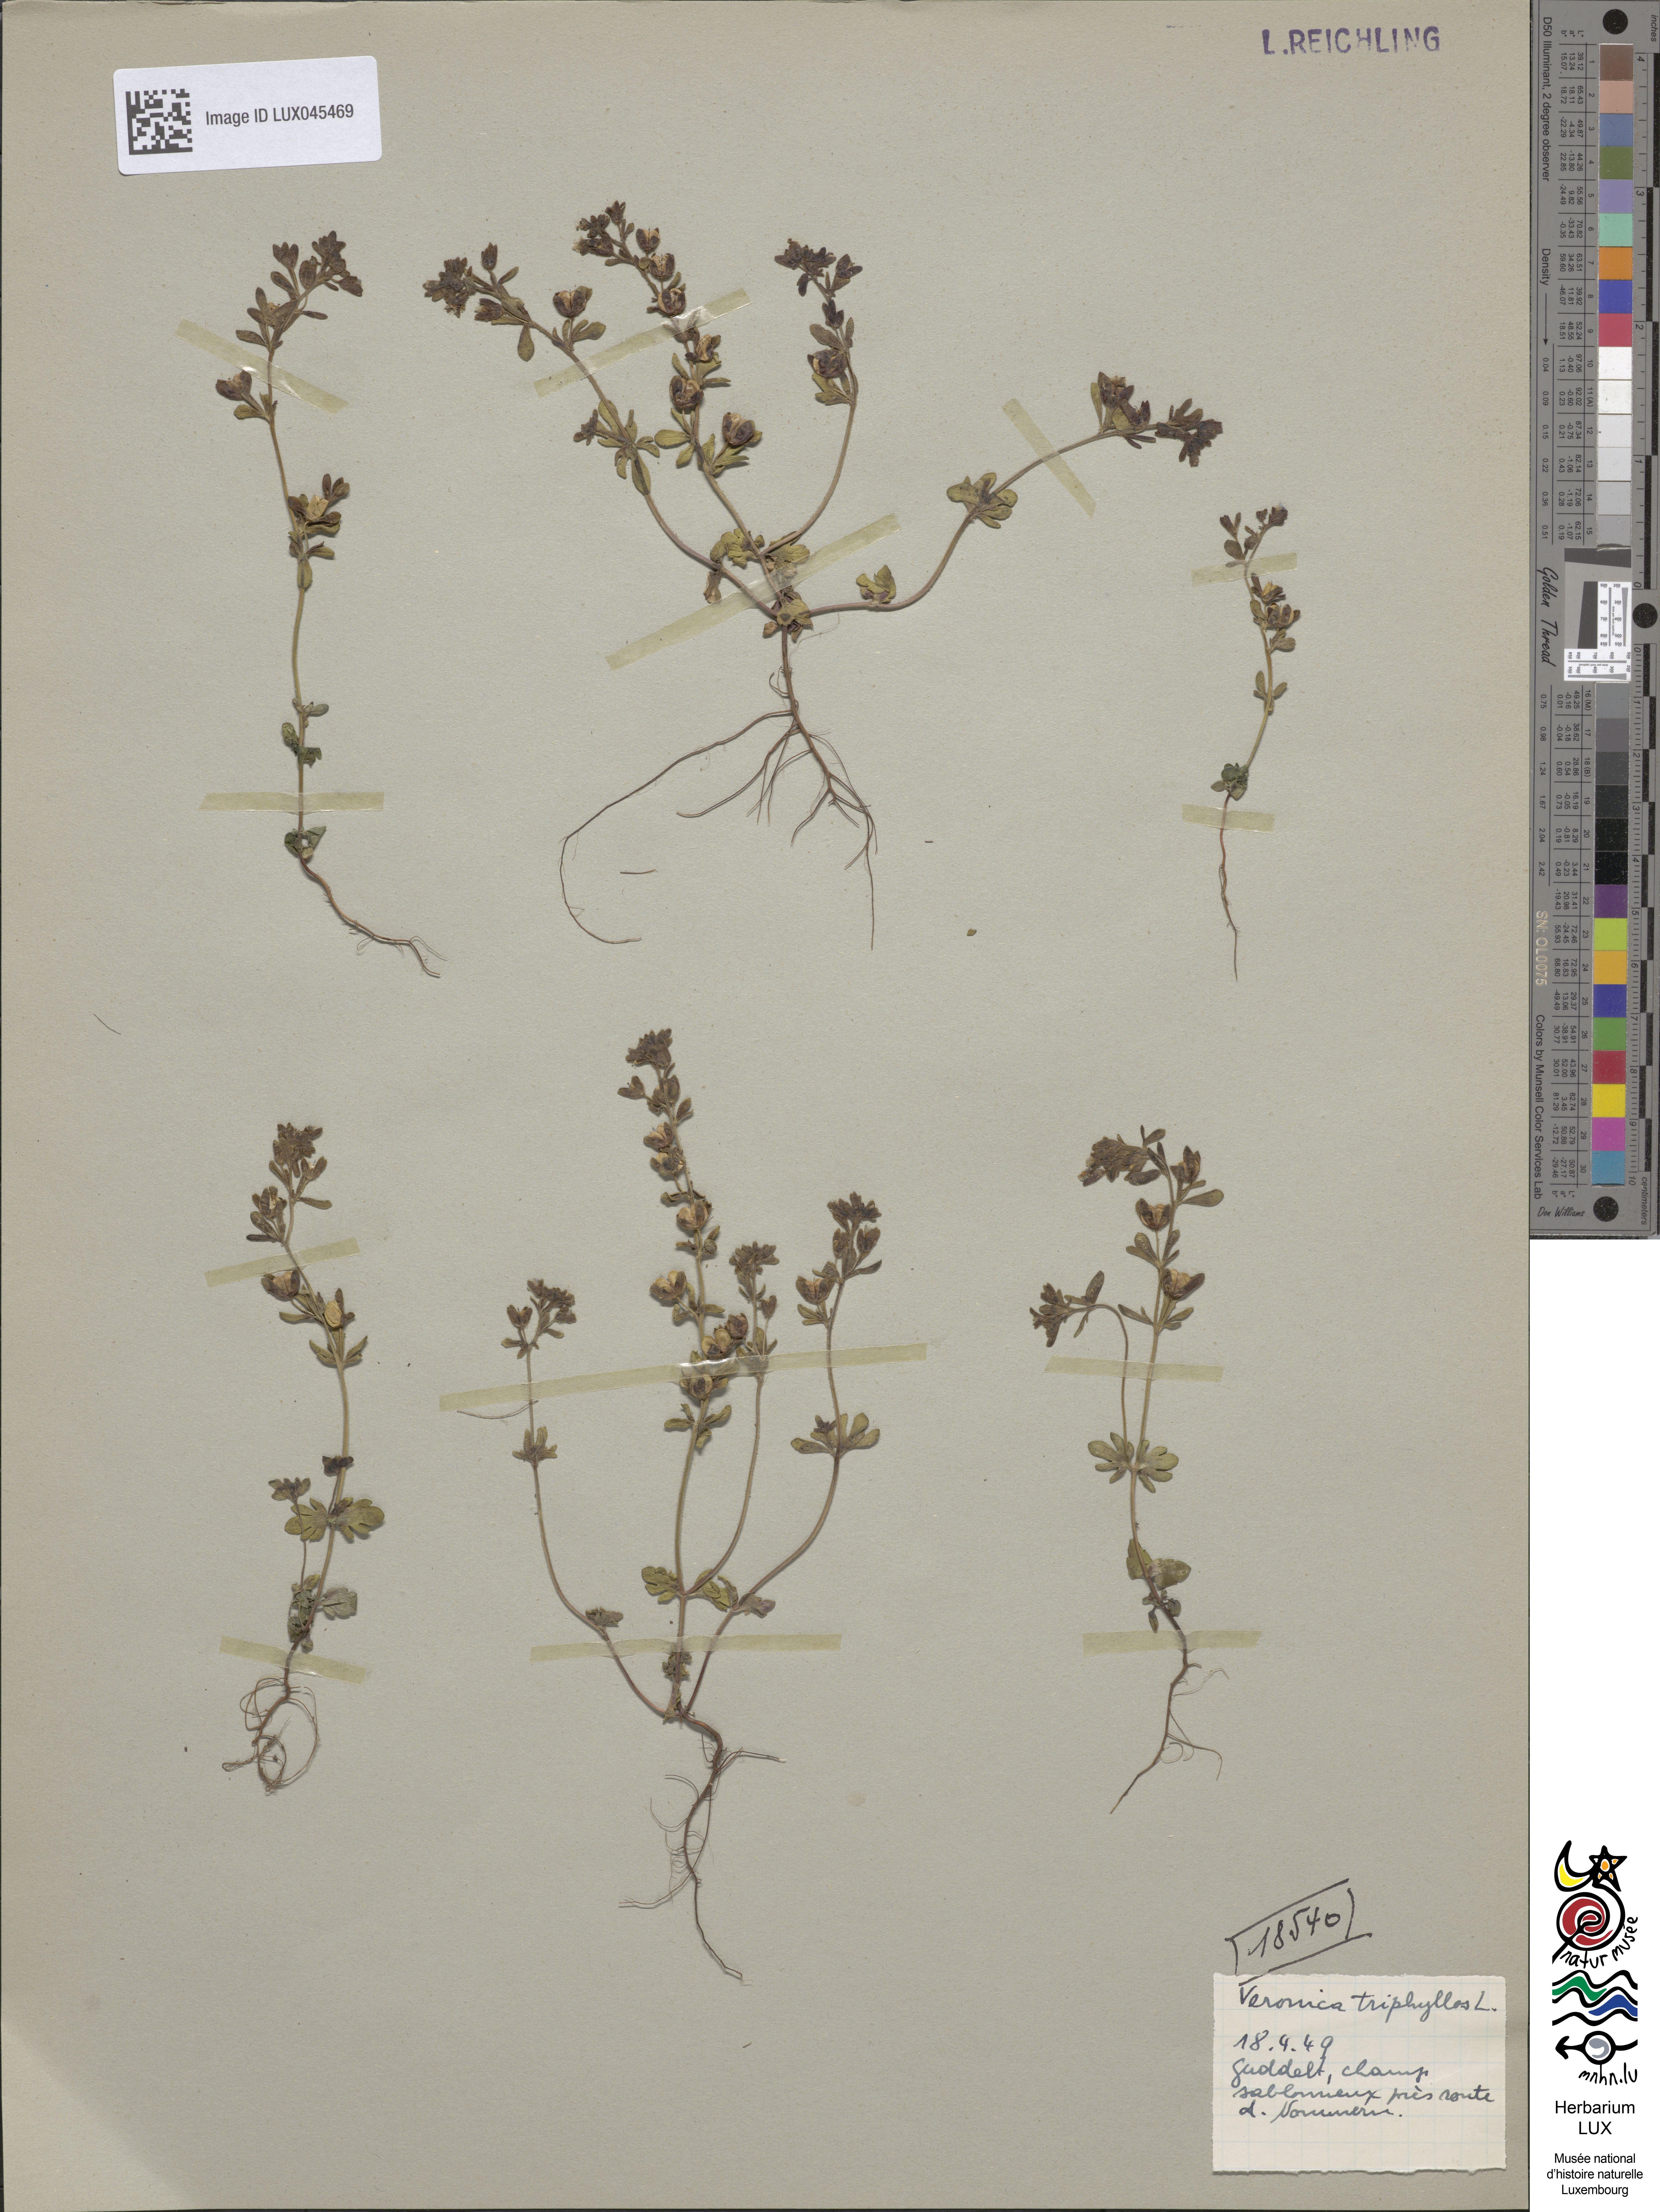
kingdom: Plantae
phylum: Tracheophyta
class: Magnoliopsida
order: Lamiales
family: Plantaginaceae
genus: Veronica
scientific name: Veronica triphyllos
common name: Fingered speedwell
